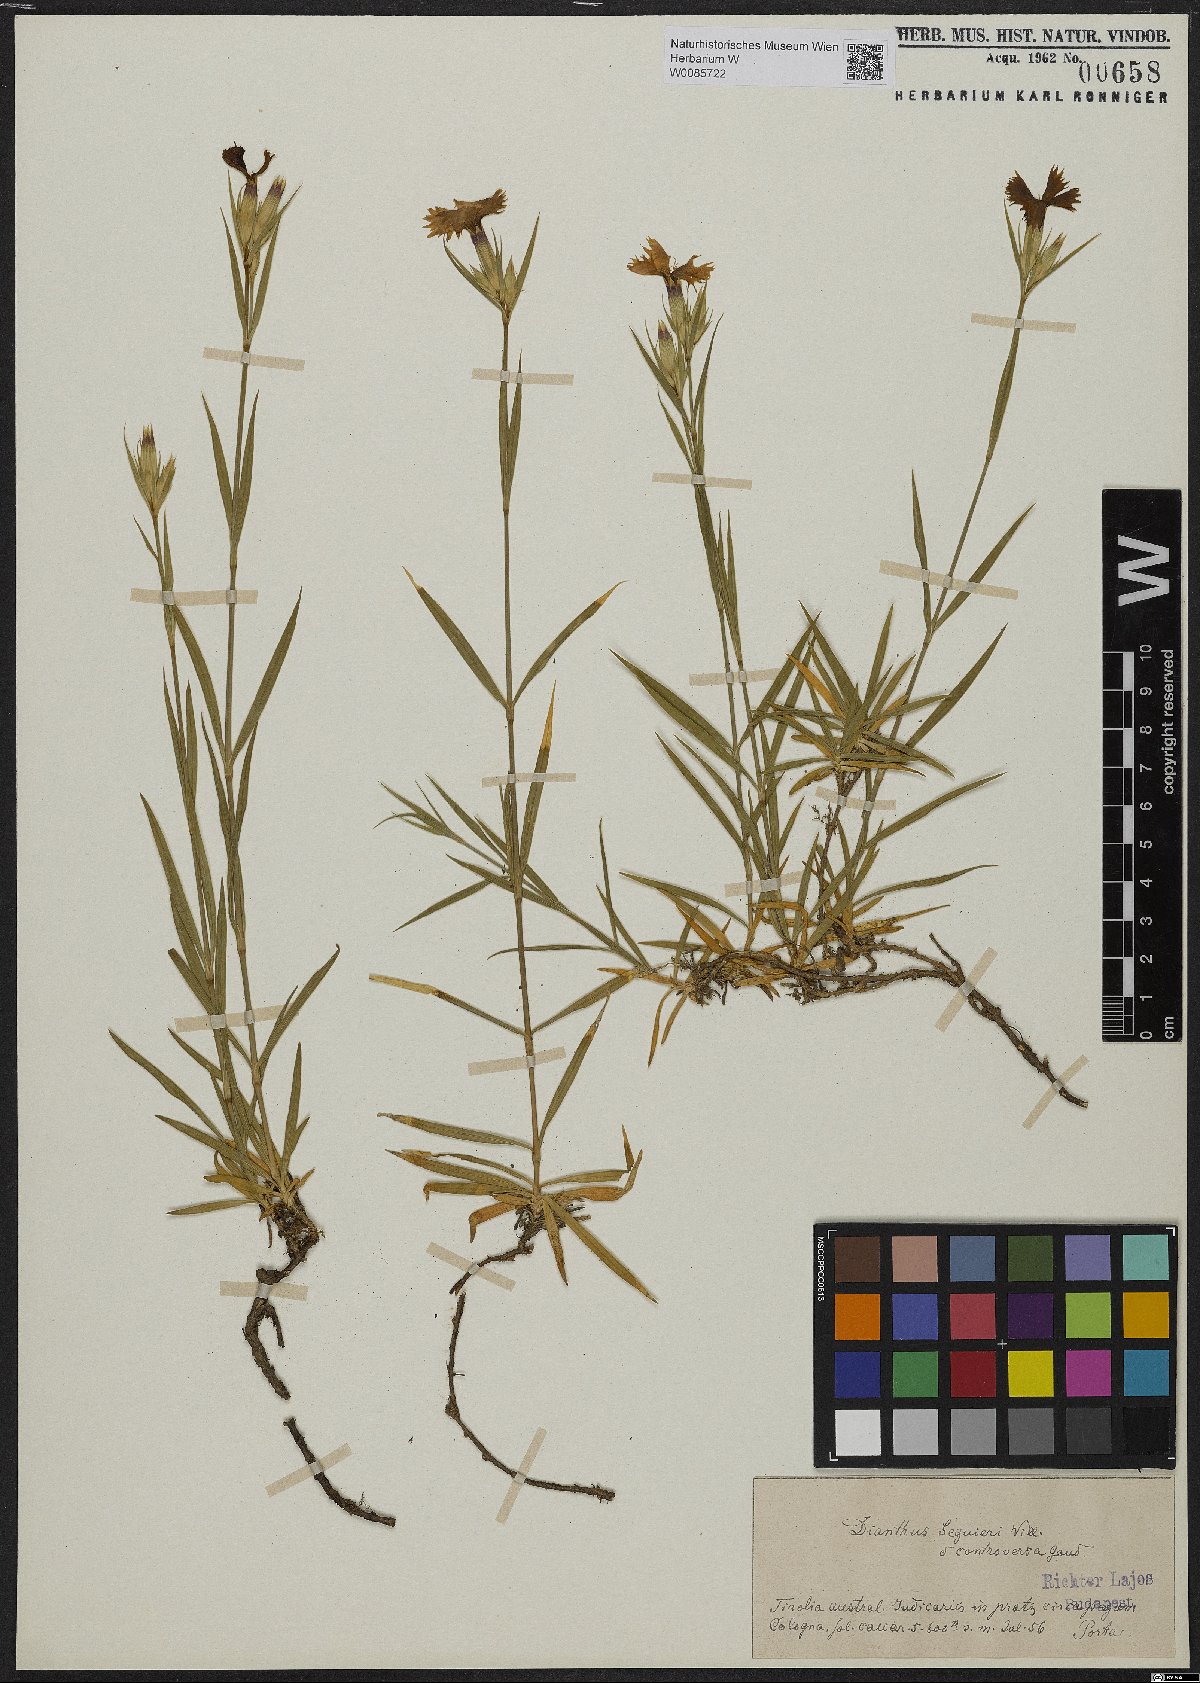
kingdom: Plantae
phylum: Tracheophyta
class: Magnoliopsida
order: Caryophyllales
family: Caryophyllaceae
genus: Dianthus
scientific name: Dianthus seguieri
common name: Ragged pink
